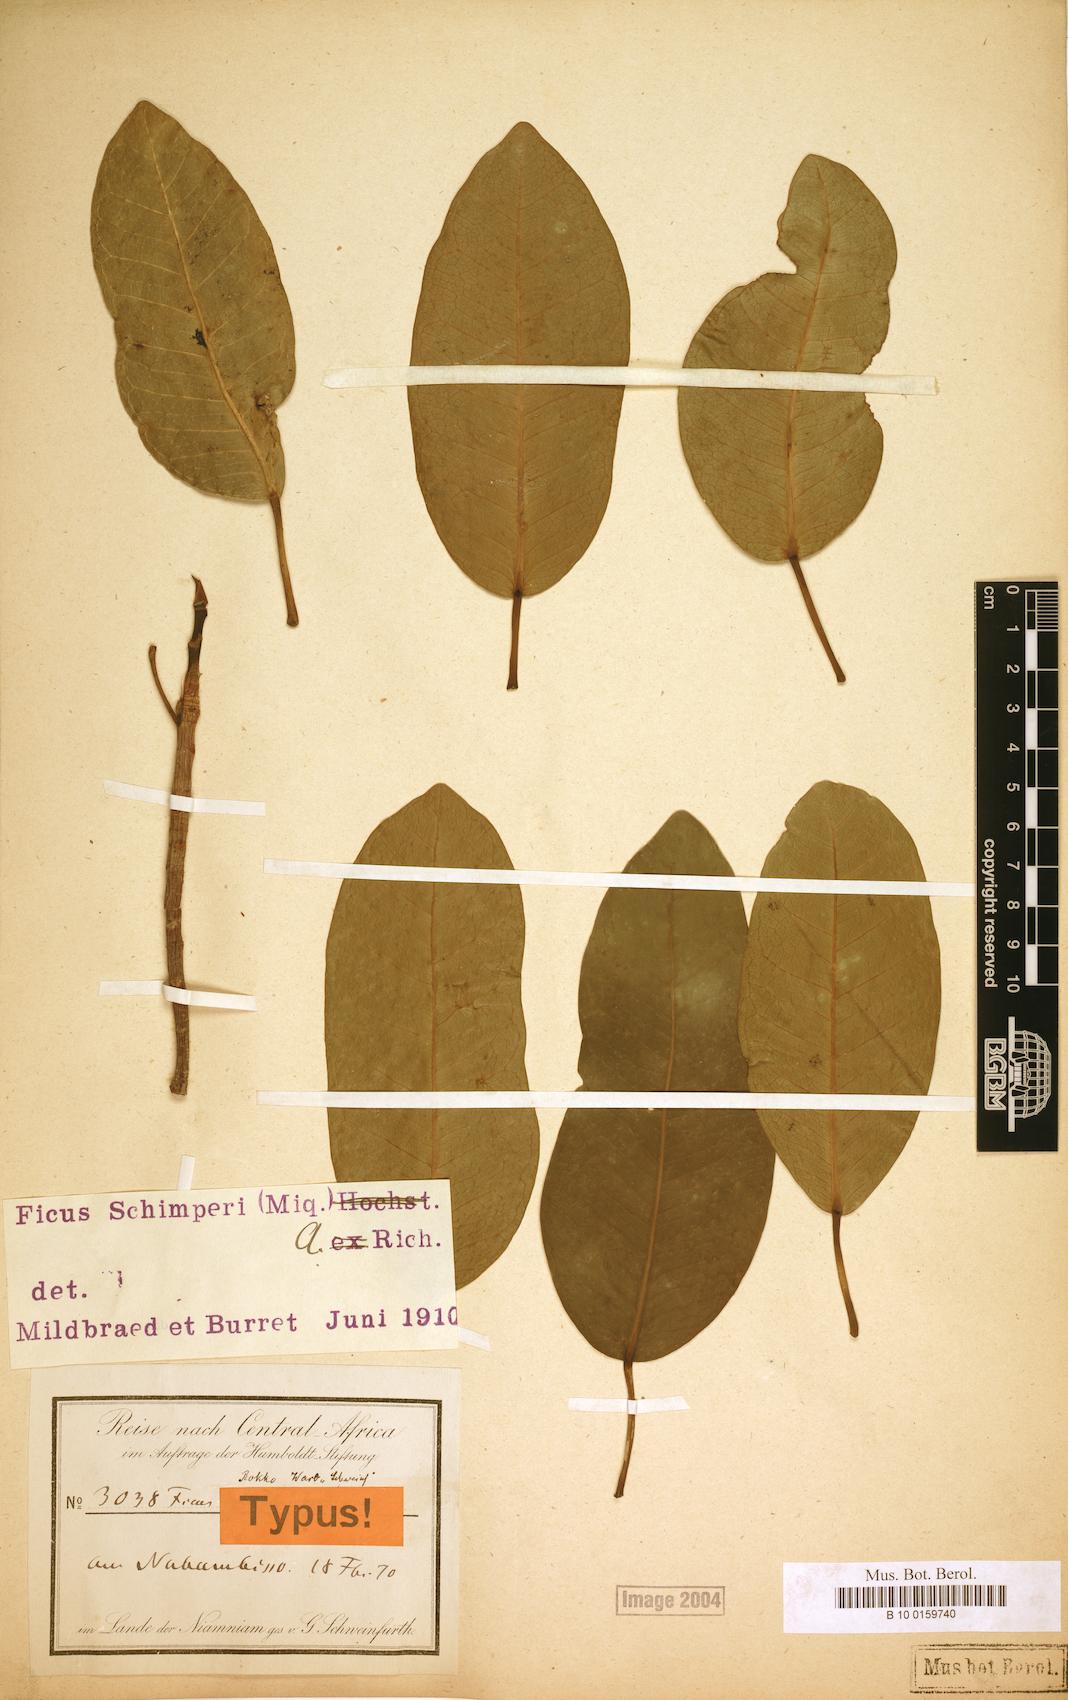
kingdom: Plantae
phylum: Tracheophyta
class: Magnoliopsida
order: Rosales
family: Moraceae
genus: Ficus
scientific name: Ficus thonningii
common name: Fig
